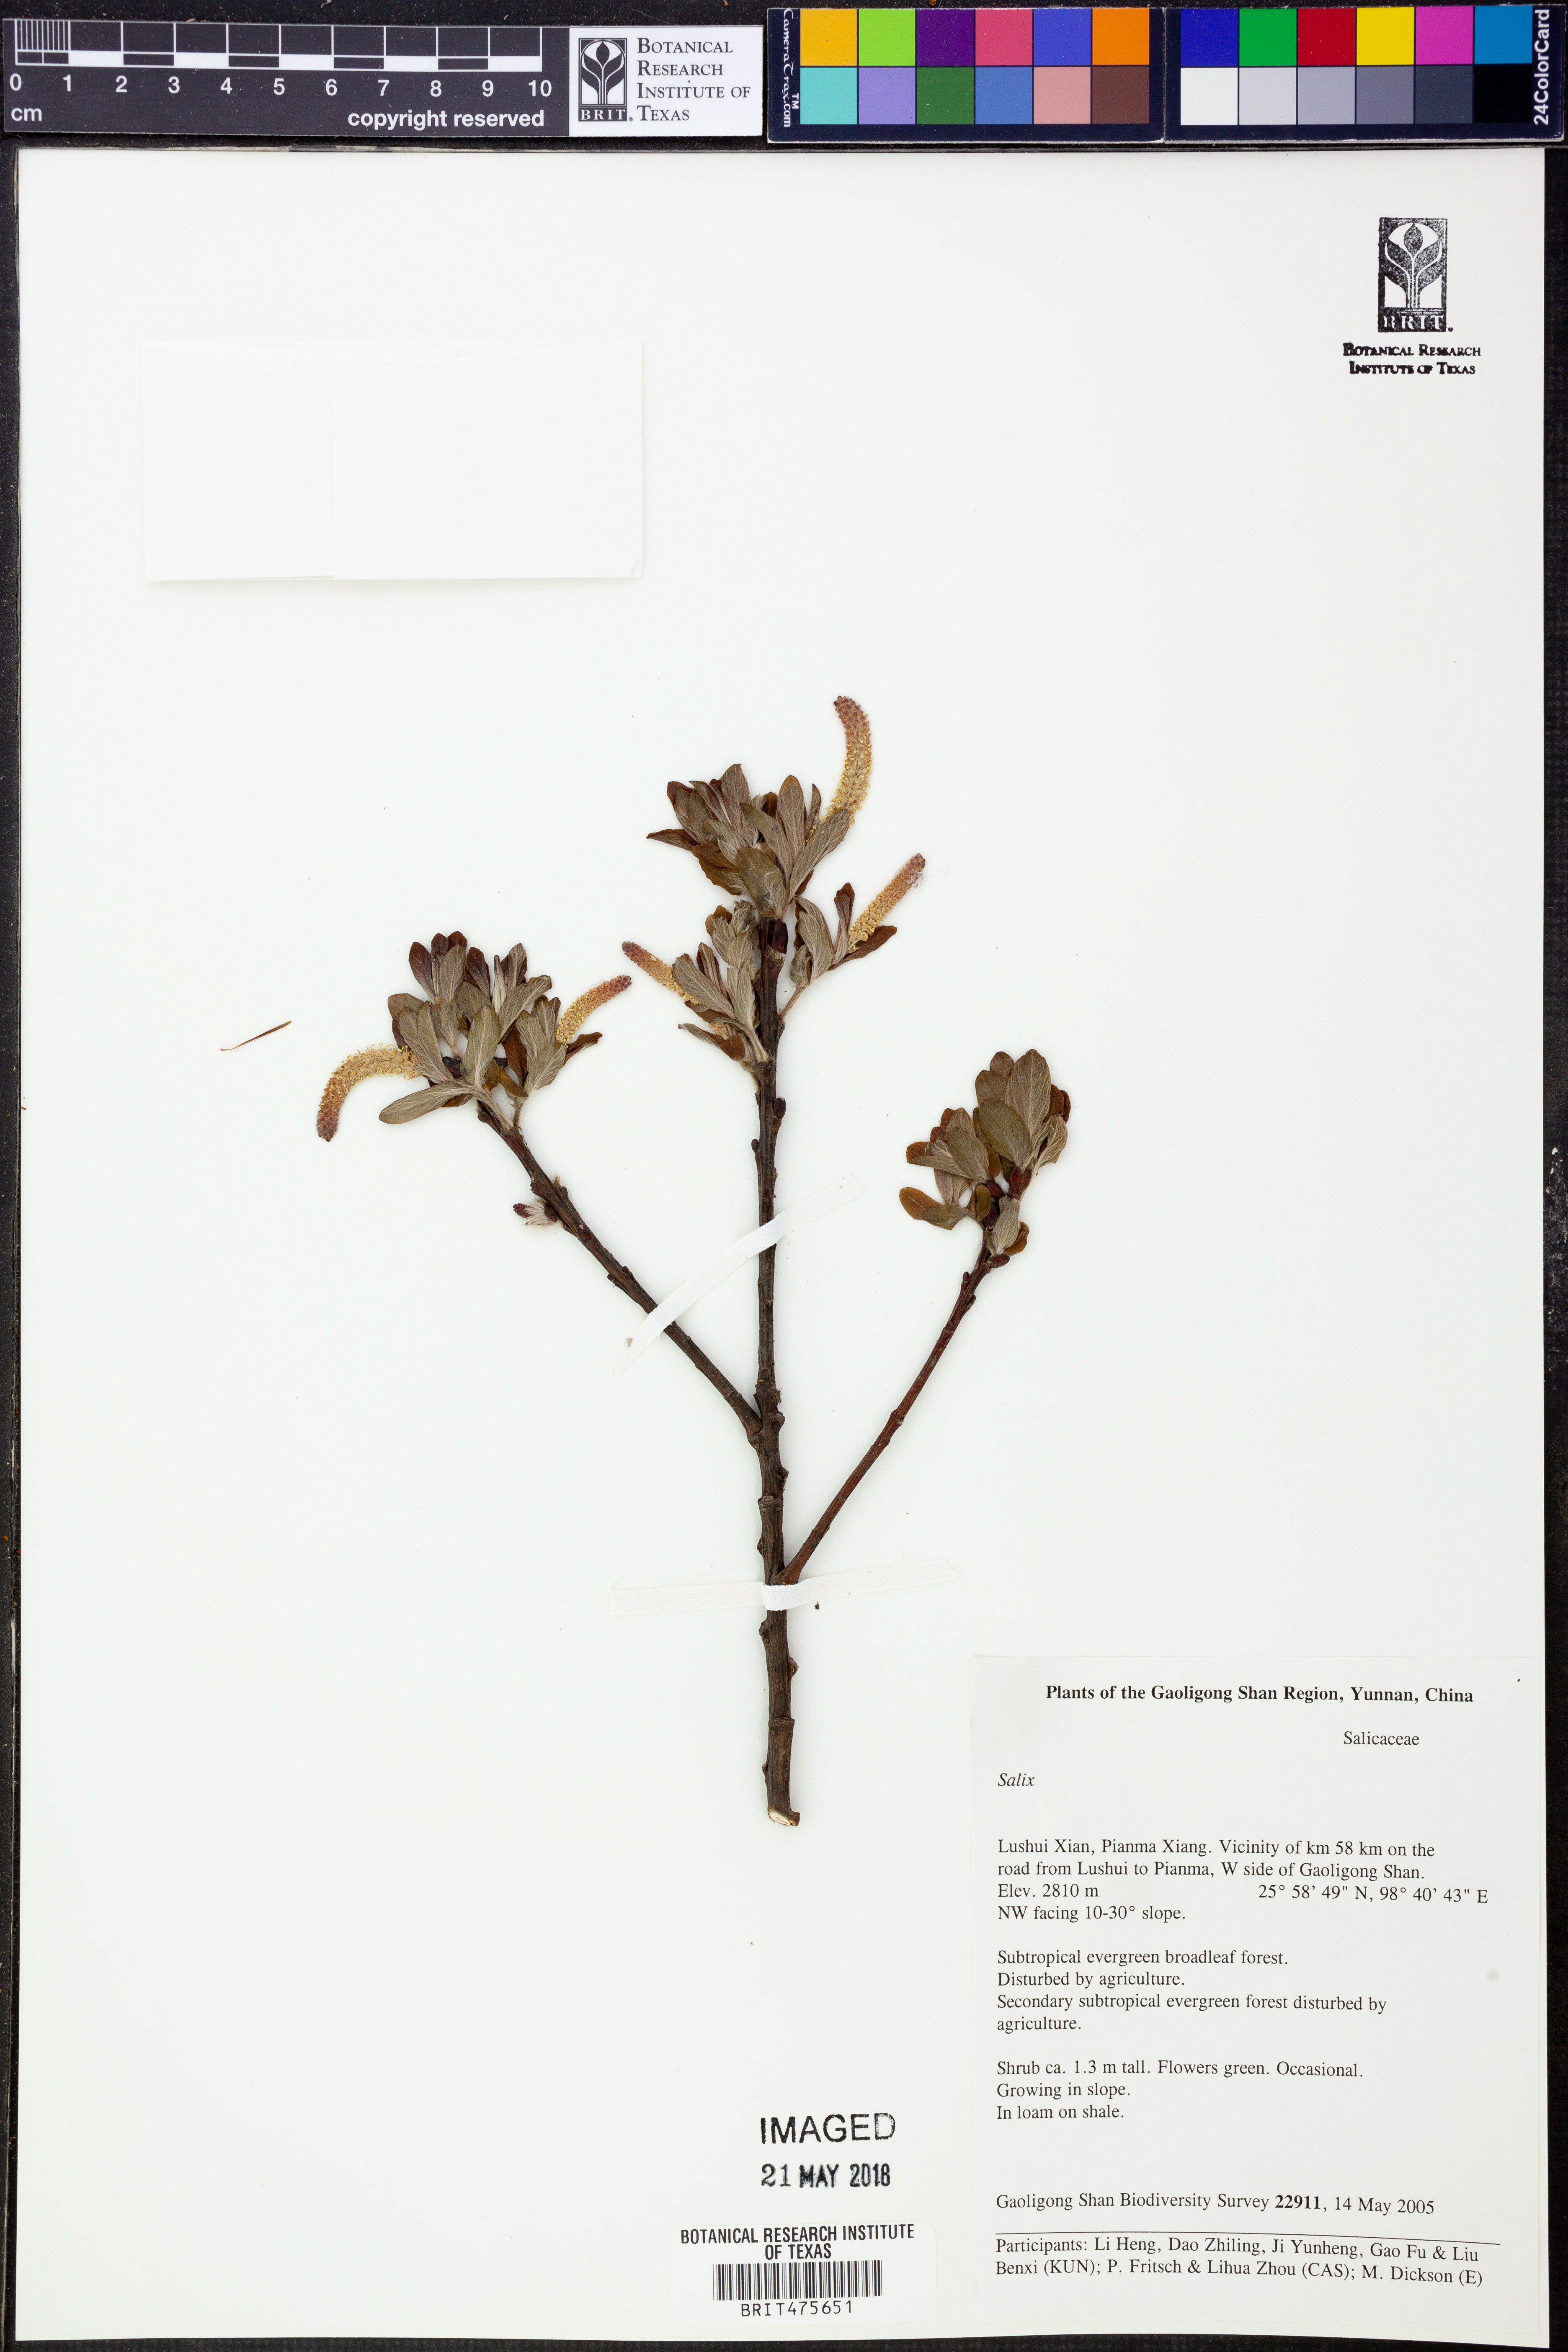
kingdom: Plantae
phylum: Tracheophyta
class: Magnoliopsida
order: Malpighiales
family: Salicaceae
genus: Salix
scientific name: Salix
